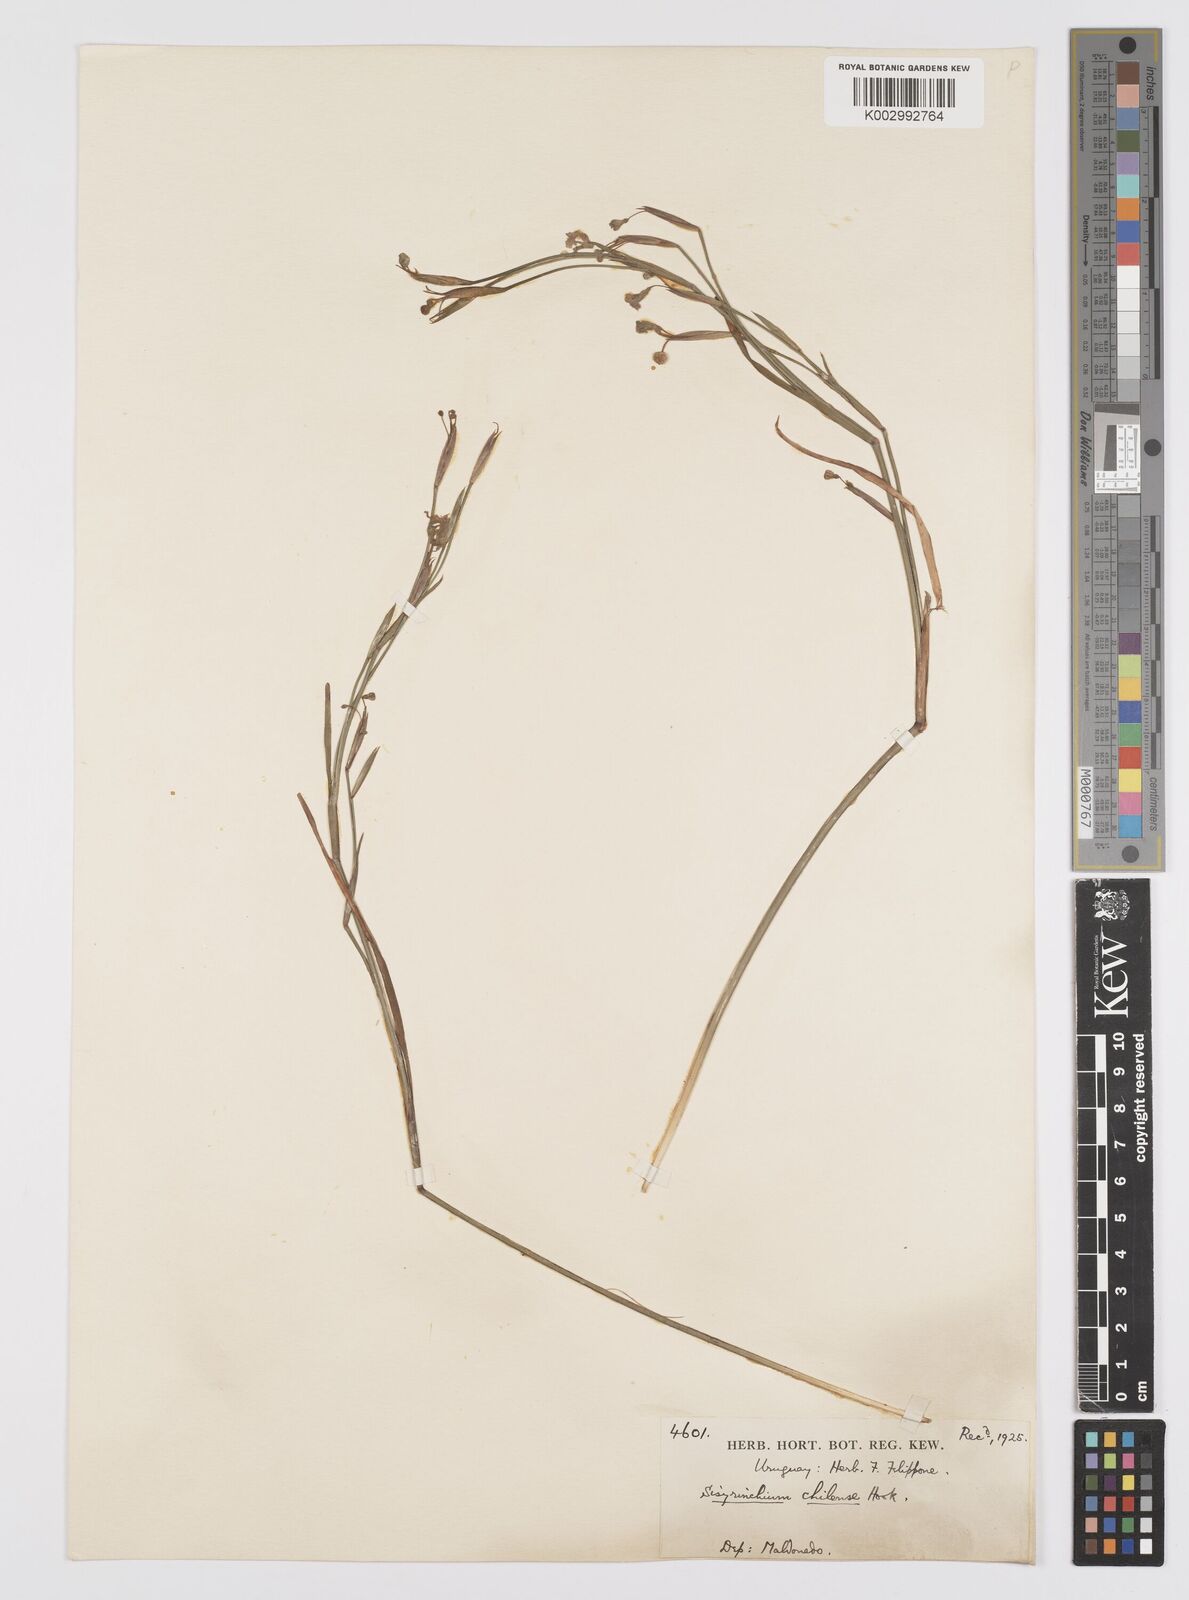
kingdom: Plantae
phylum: Tracheophyta
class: Liliopsida
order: Asparagales
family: Iridaceae
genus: Sisyrinchium
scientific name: Sisyrinchium chilense
